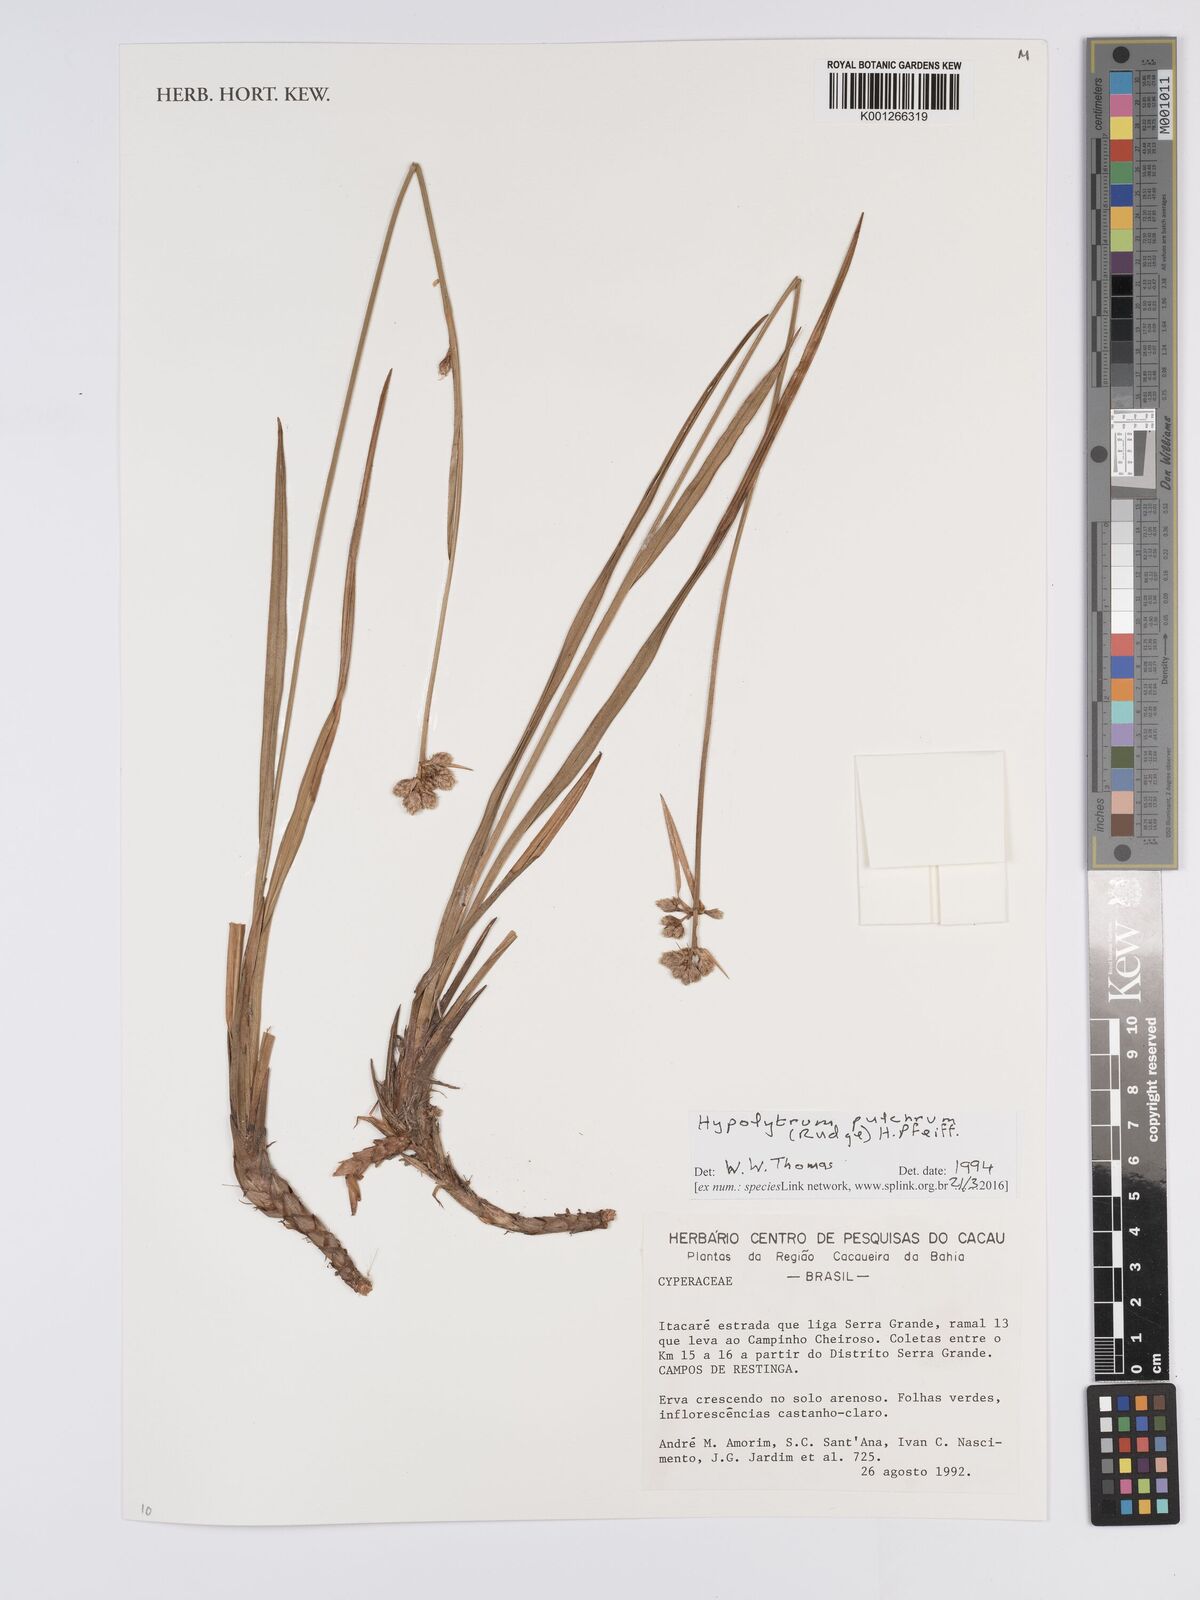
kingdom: Plantae
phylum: Tracheophyta
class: Liliopsida
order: Poales
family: Cyperaceae
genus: Hypolytrum
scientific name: Hypolytrum pulchrum
